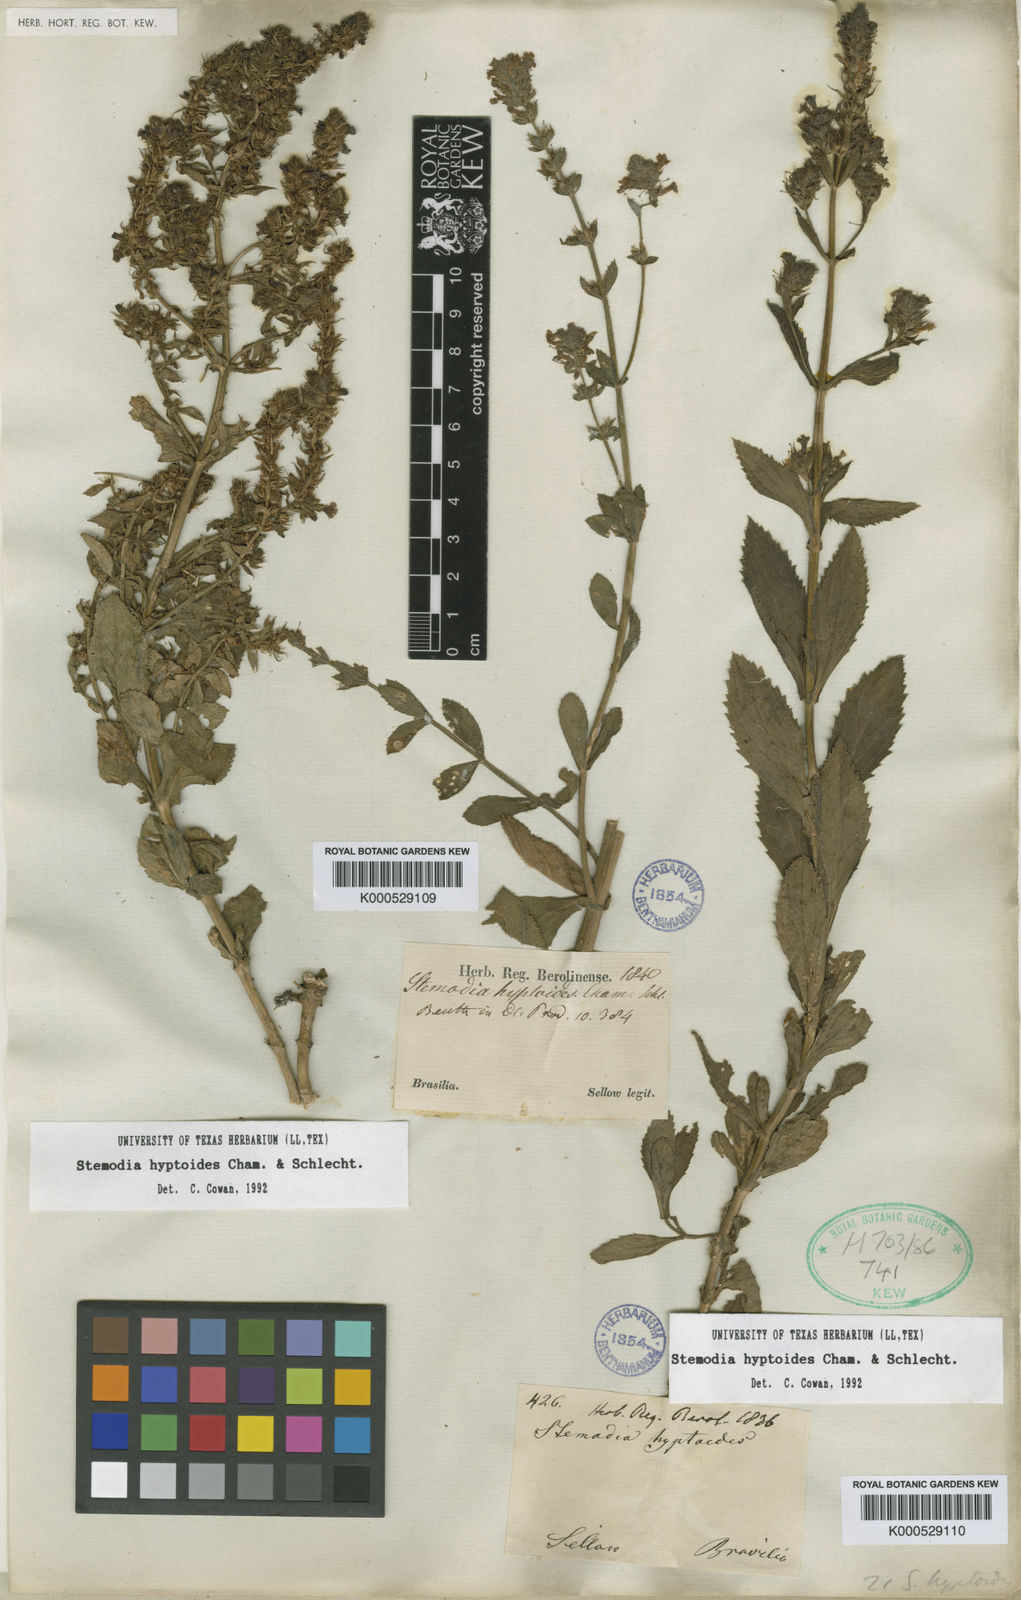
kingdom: Plantae
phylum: Tracheophyta
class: Magnoliopsida
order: Lamiales
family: Plantaginaceae
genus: Stemodia
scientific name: Stemodia hyptoides
